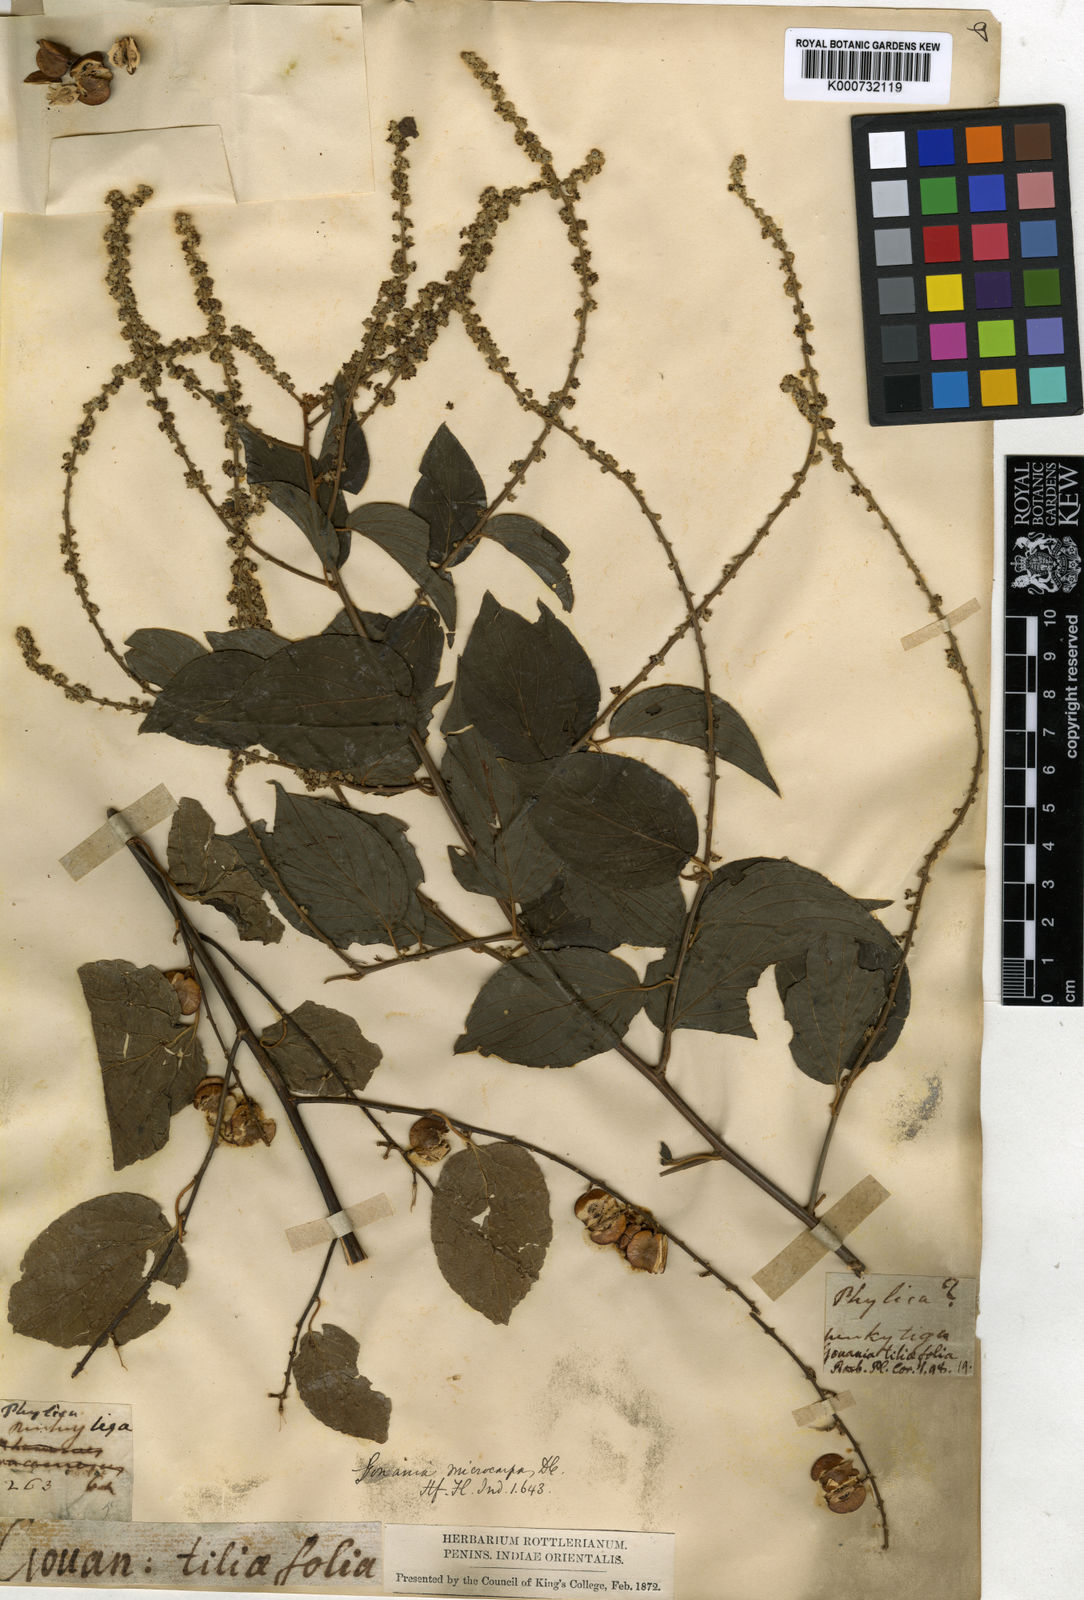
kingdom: Plantae
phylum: Tracheophyta
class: Magnoliopsida
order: Rosales
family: Rhamnaceae
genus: Gouania
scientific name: Gouania microcarpa
